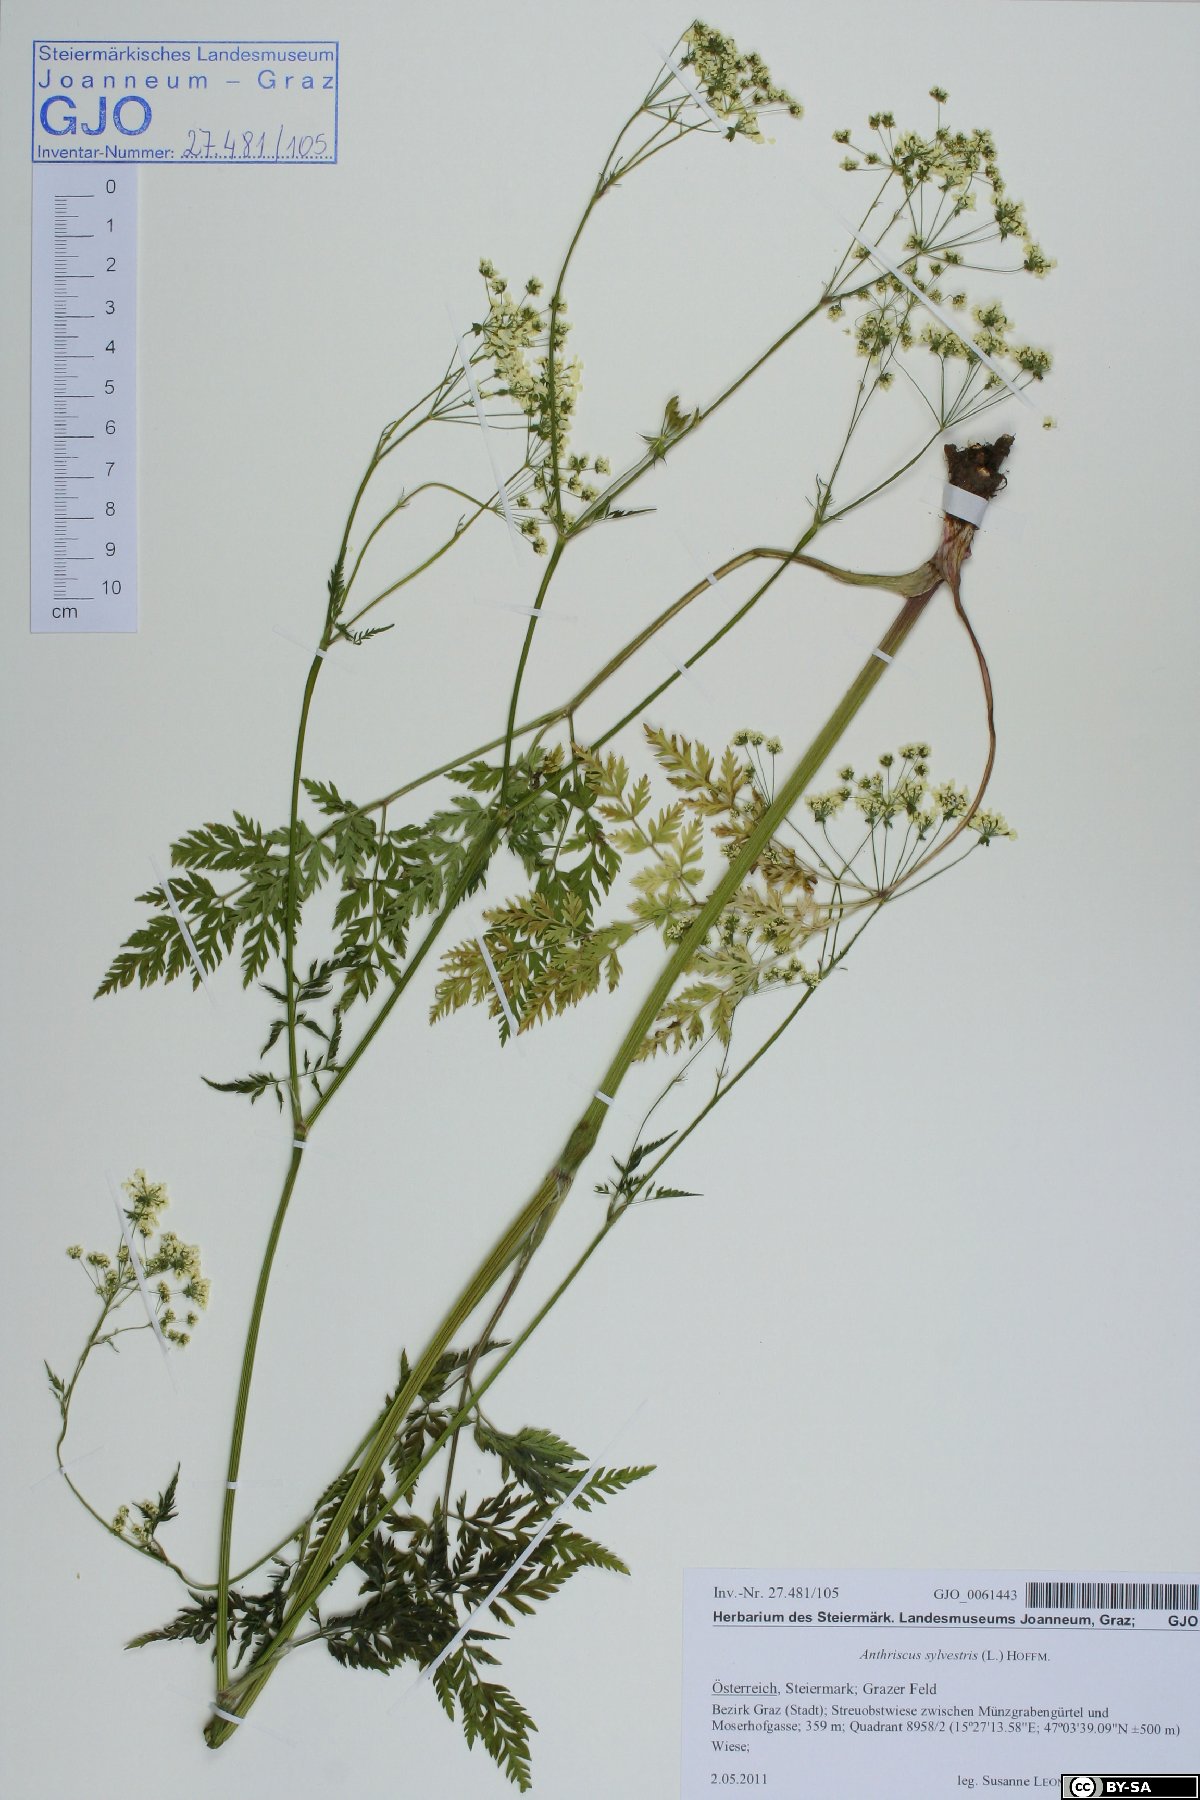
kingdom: Plantae
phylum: Tracheophyta
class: Magnoliopsida
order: Apiales
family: Apiaceae
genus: Anthriscus
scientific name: Anthriscus sylvestris
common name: Cow parsley
